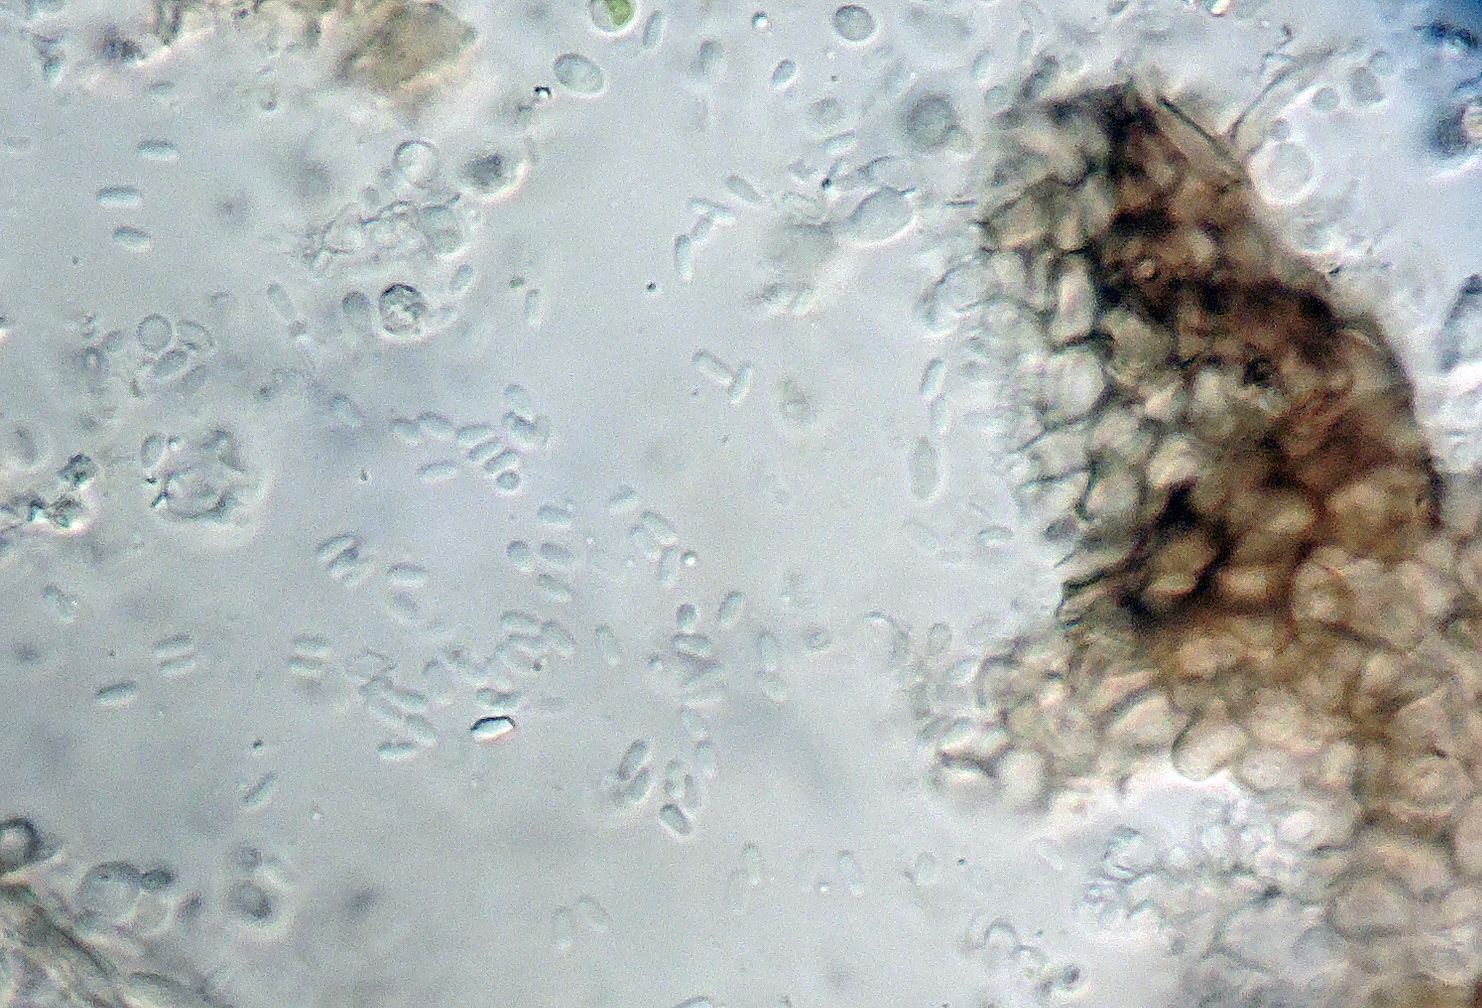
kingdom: Fungi
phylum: Ascomycota
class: Sordariomycetes
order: Diaporthales
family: Valsaceae
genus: Cytospora
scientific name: Cytospora tamaricis
